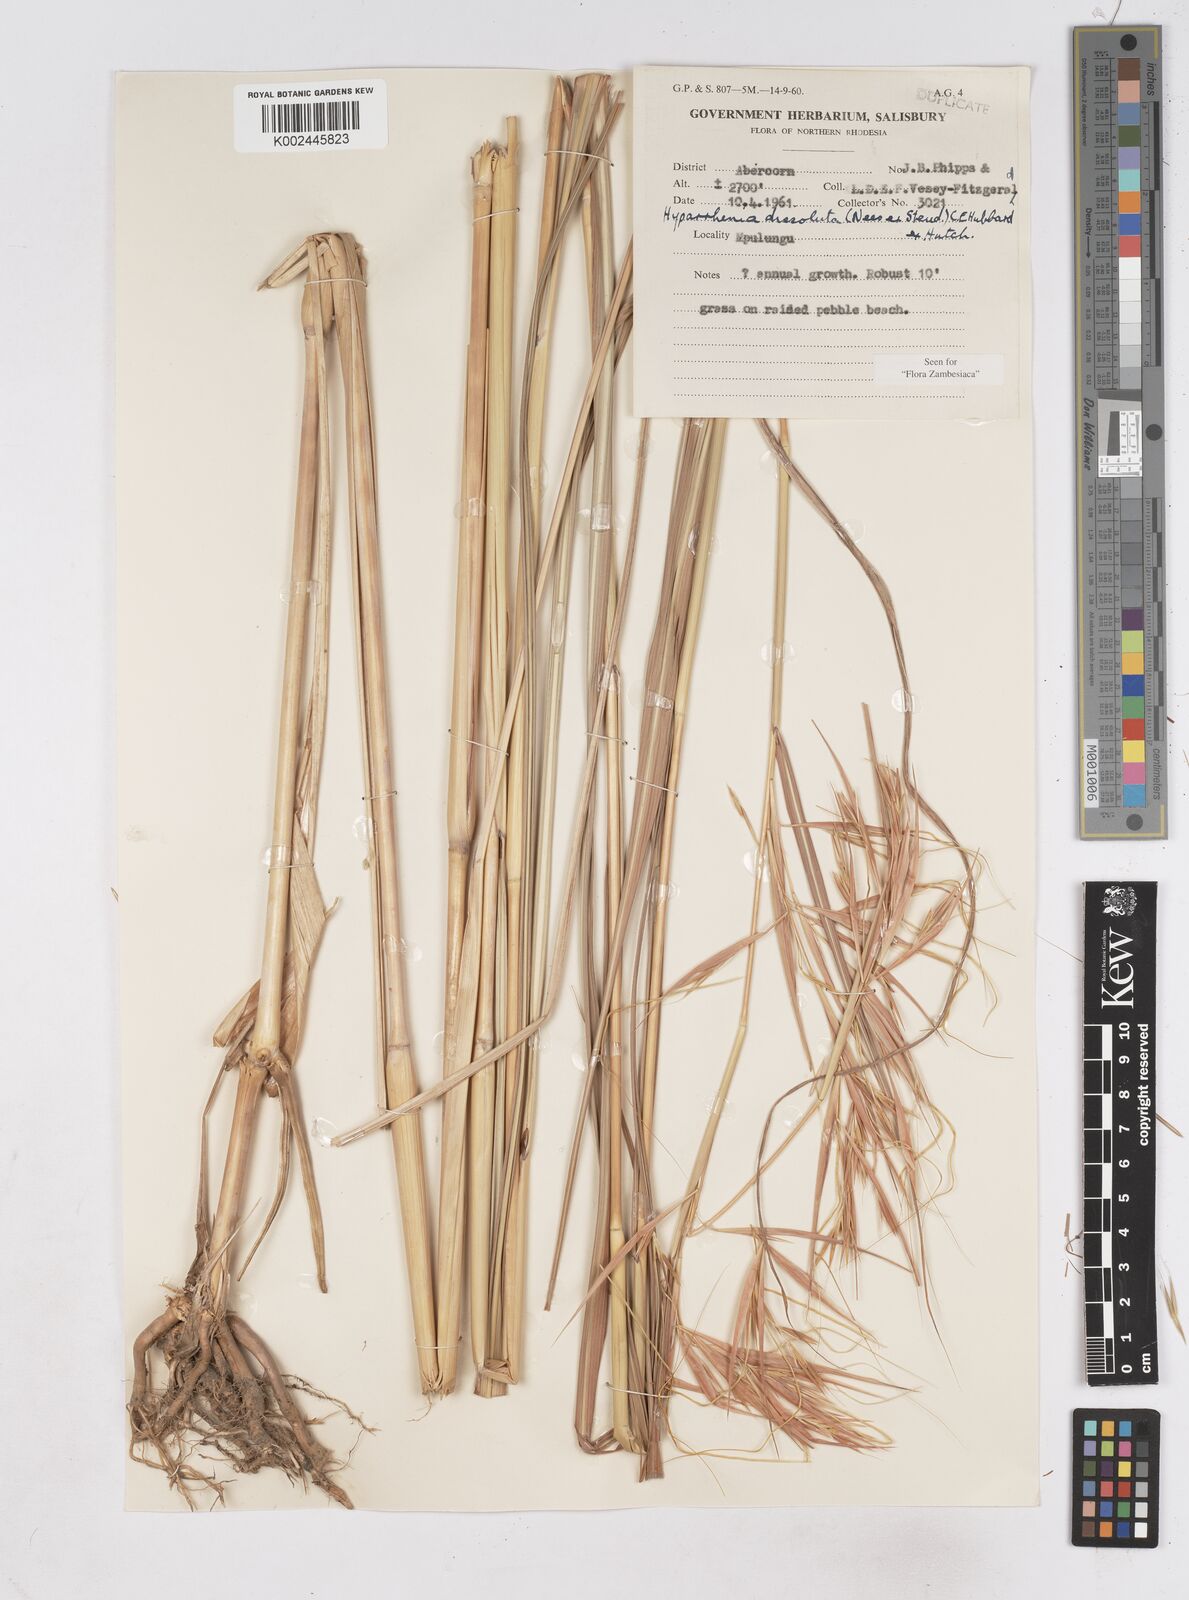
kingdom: Plantae
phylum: Tracheophyta
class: Liliopsida
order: Poales
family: Poaceae
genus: Hyperthelia
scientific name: Hyperthelia dissoluta
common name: Yellow thatching grass
